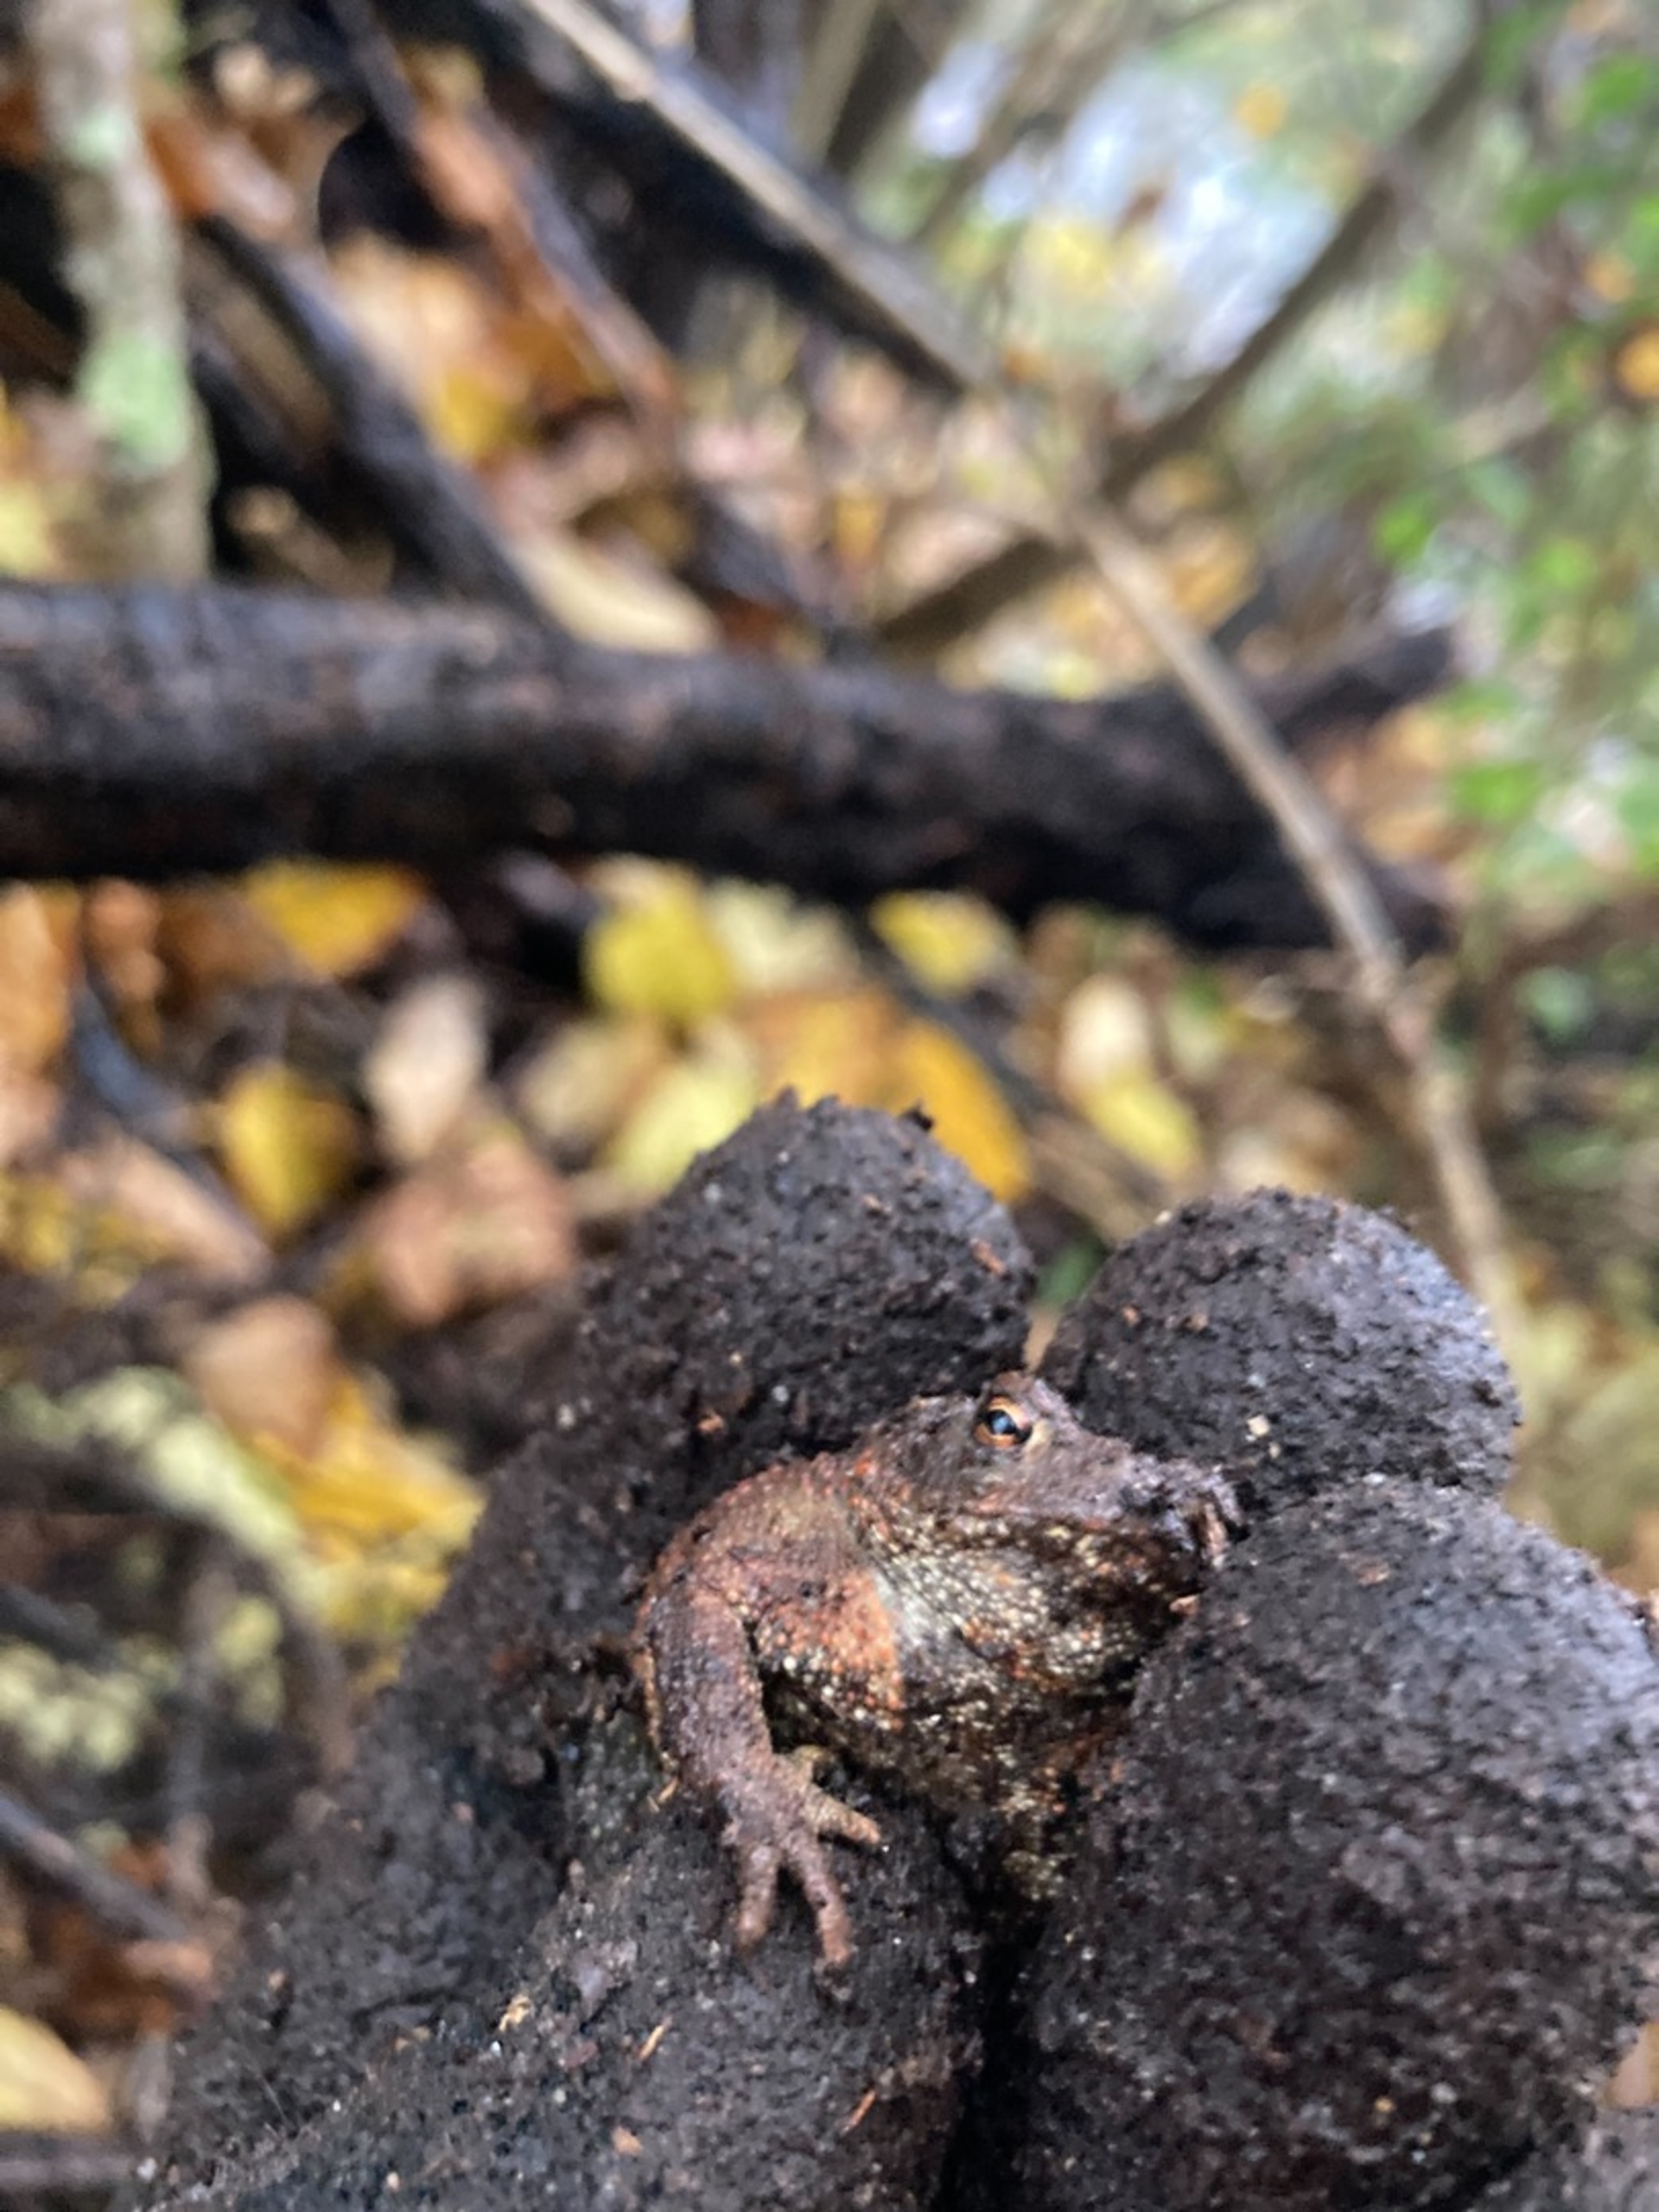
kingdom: Animalia
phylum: Chordata
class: Amphibia
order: Anura
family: Bufonidae
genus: Bufo
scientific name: Bufo bufo
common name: Skrubtudse
